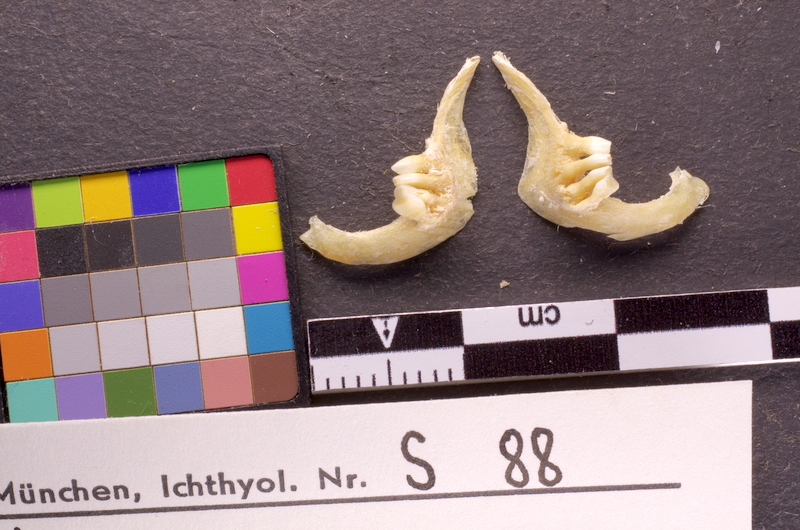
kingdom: Animalia
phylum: Chordata
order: Cypriniformes
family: Cyprinidae
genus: Carassius
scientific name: Carassius gibelio
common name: Prussian carp
